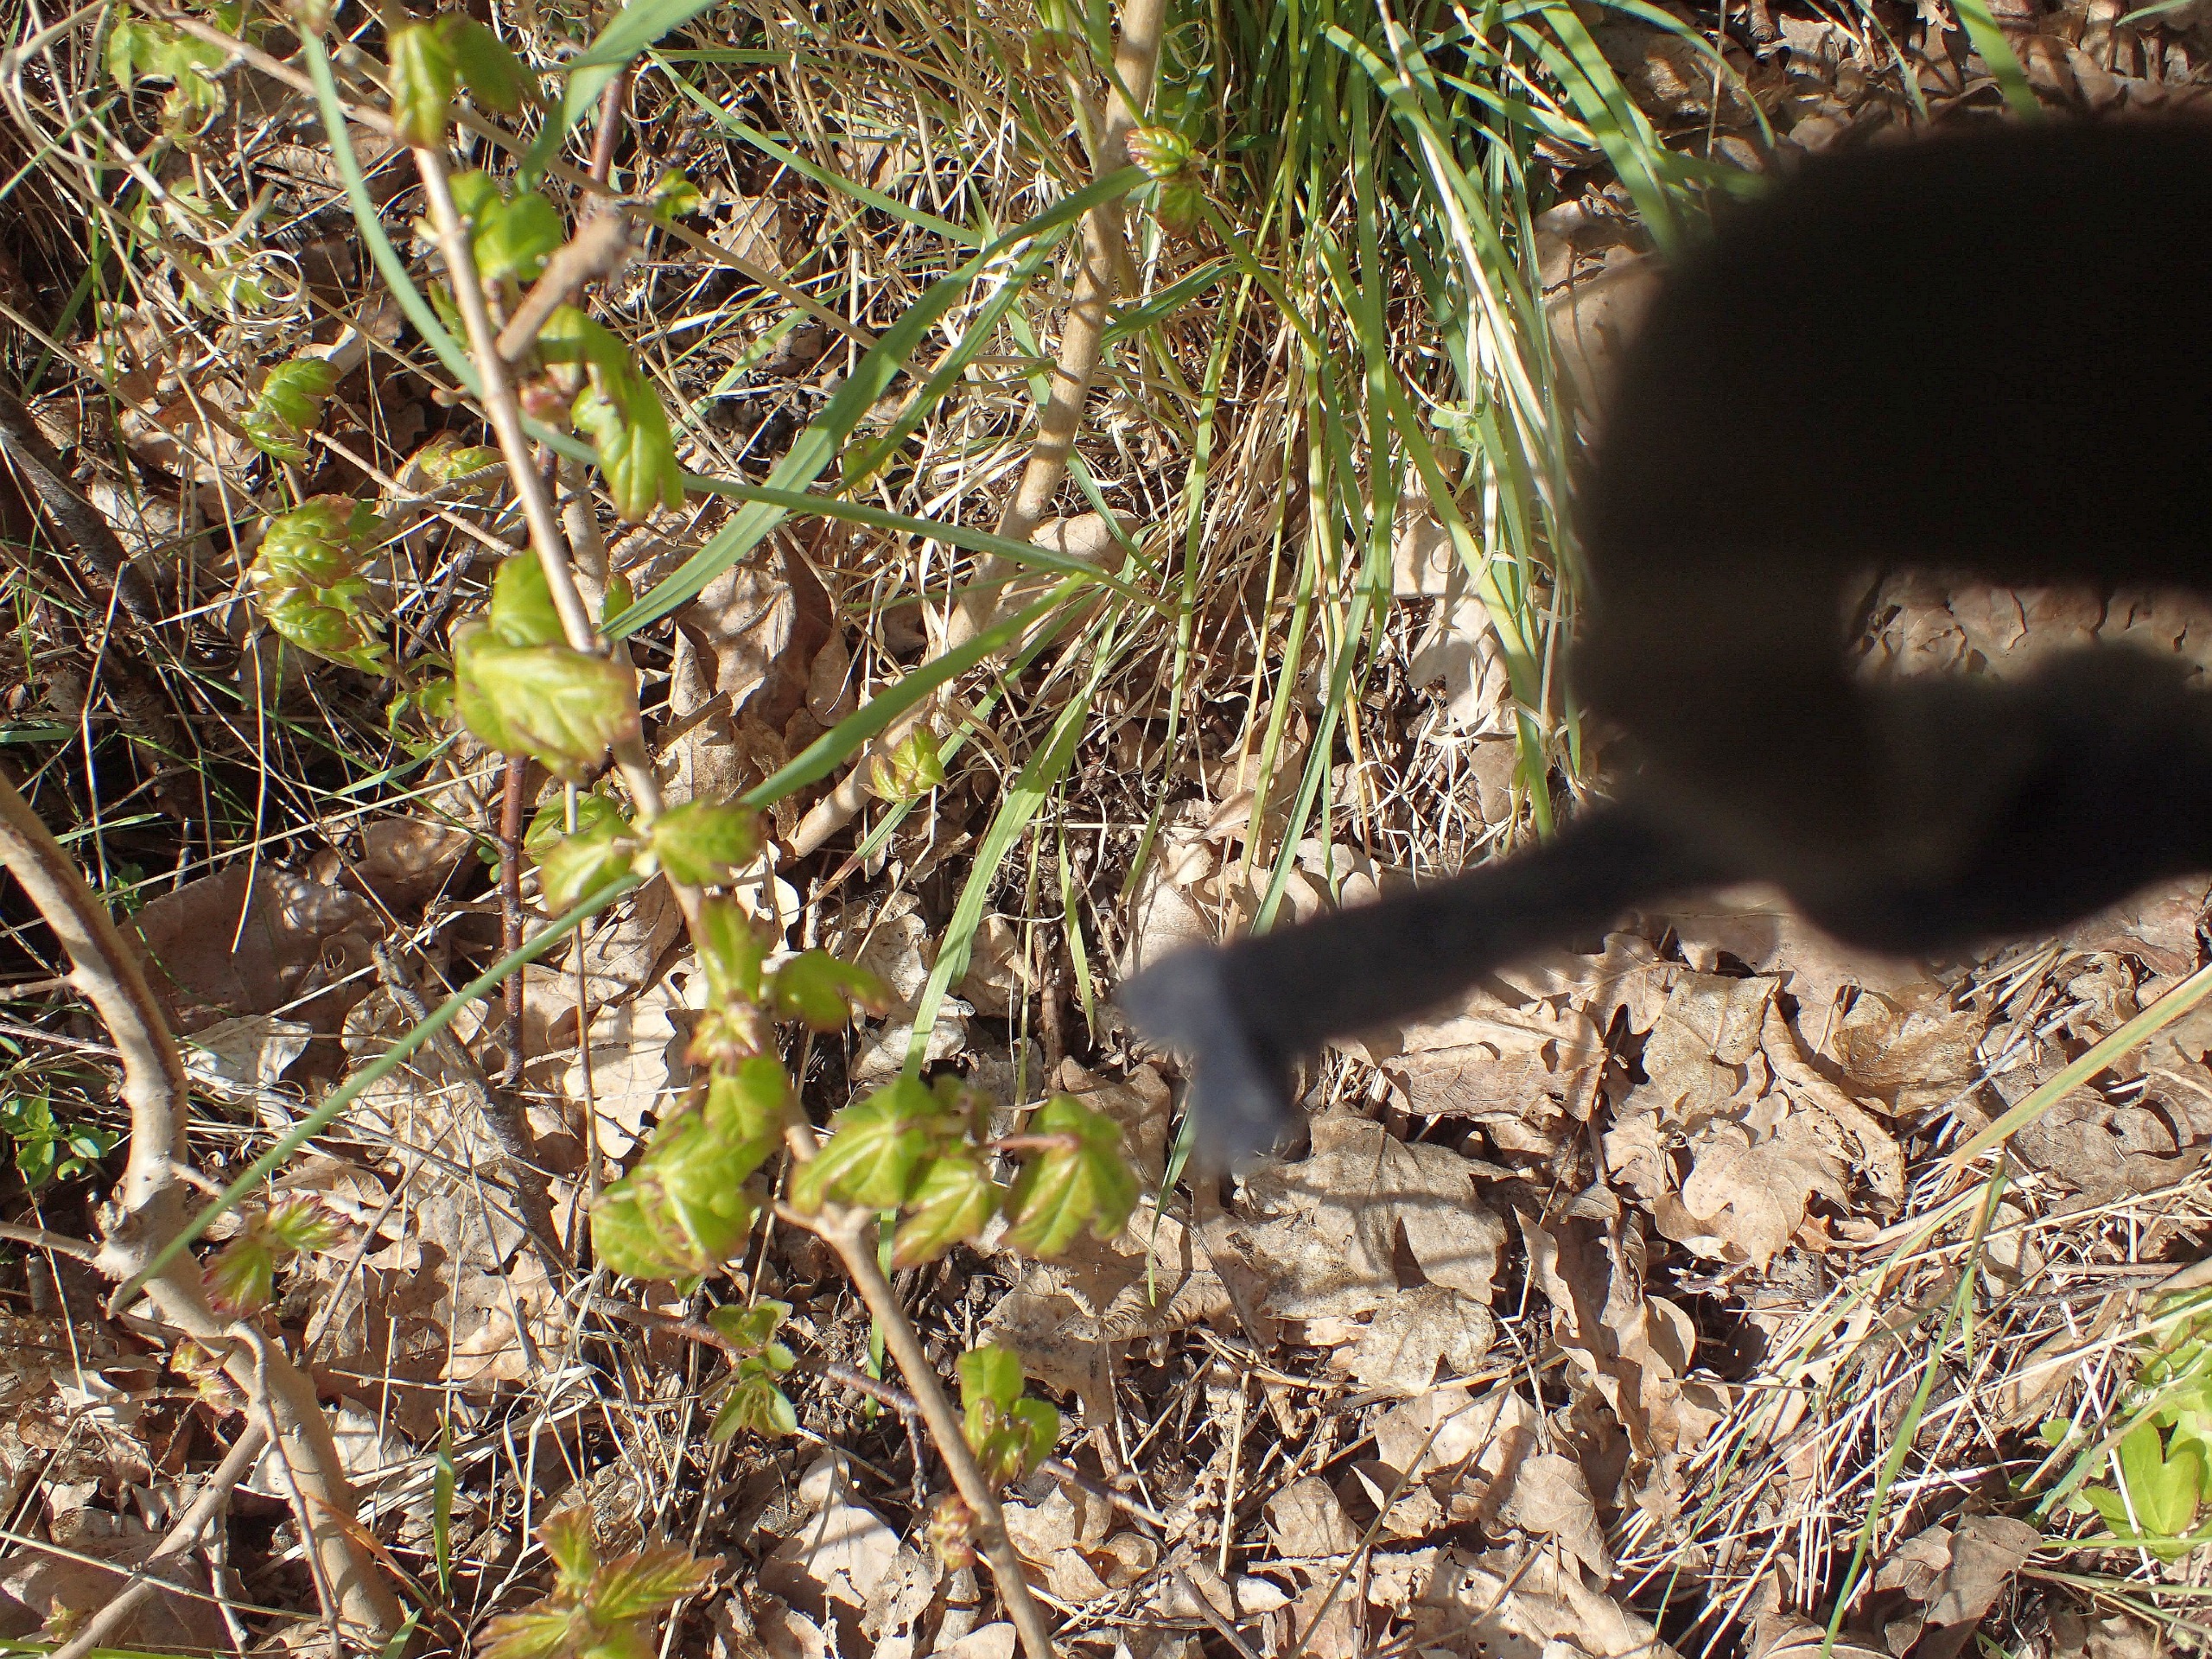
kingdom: Plantae
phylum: Tracheophyta
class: Magnoliopsida
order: Sapindales
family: Sapindaceae
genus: Acer
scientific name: Acer campestre
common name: Navr
